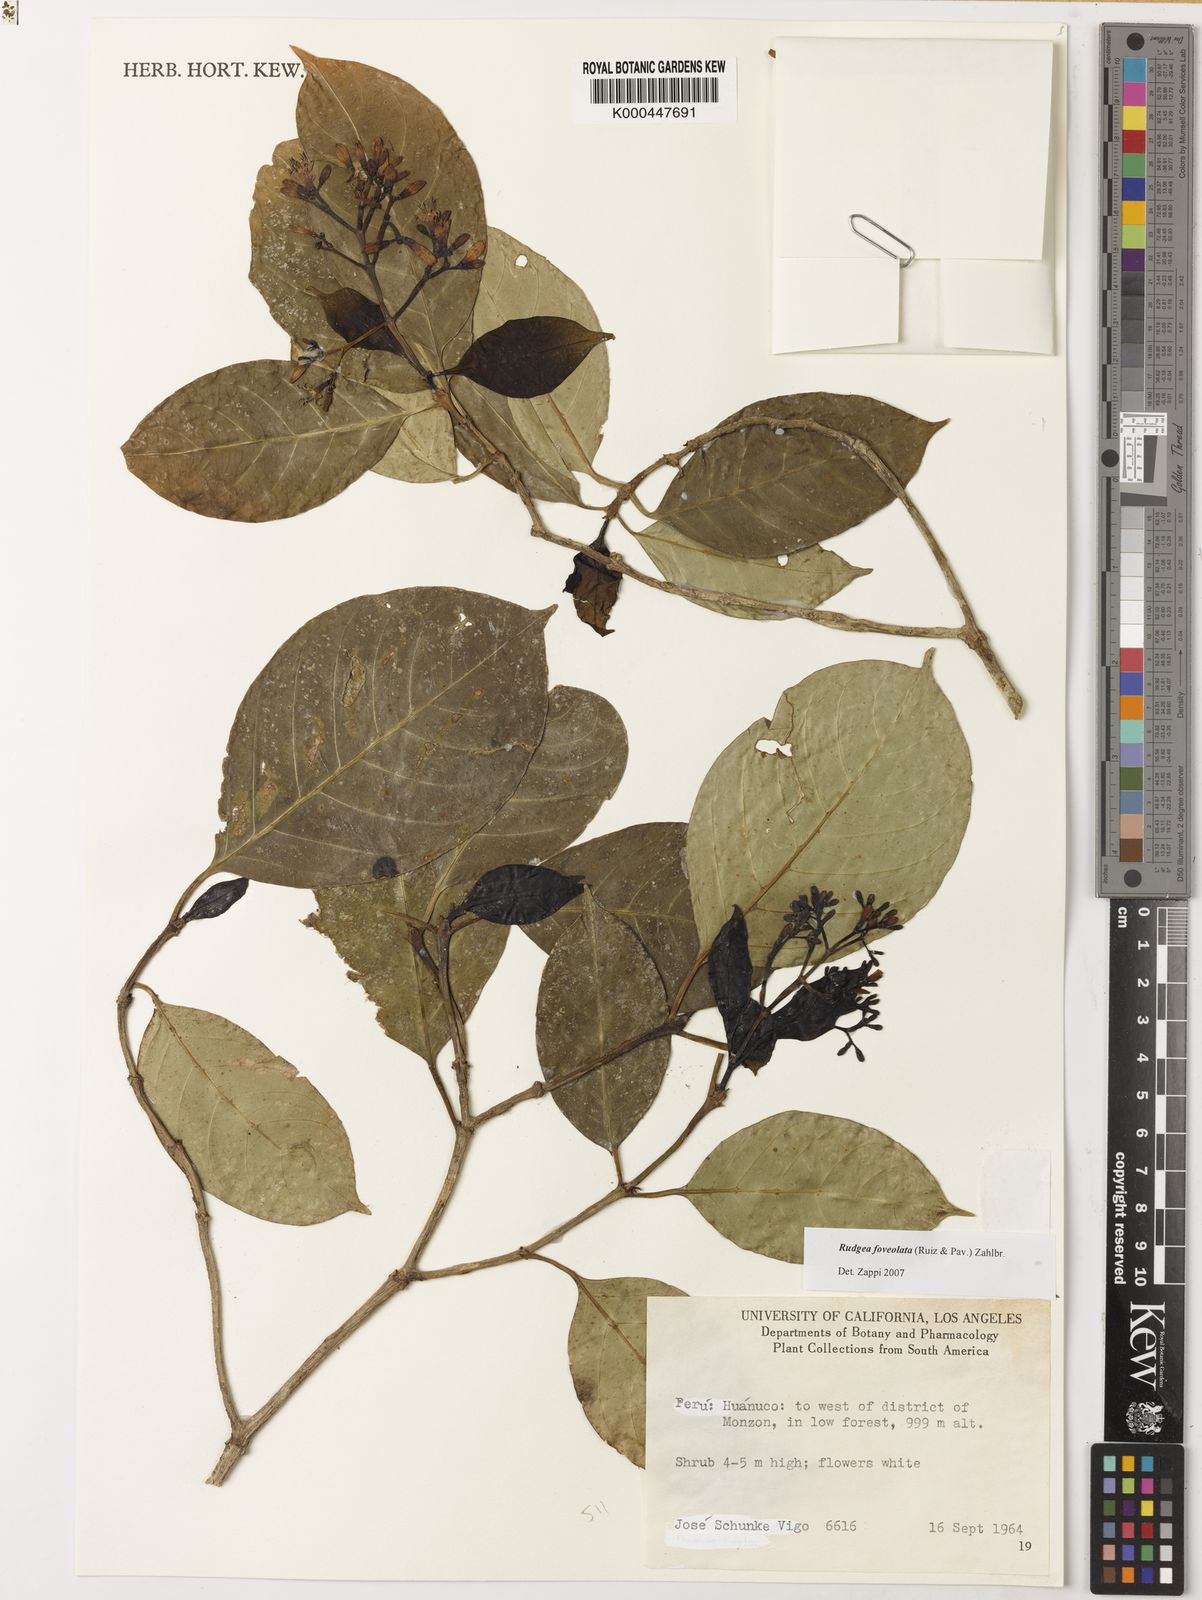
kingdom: Plantae
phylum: Tracheophyta
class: Magnoliopsida
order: Gentianales
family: Rubiaceae
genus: Rudgea
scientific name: Rudgea foveolata
